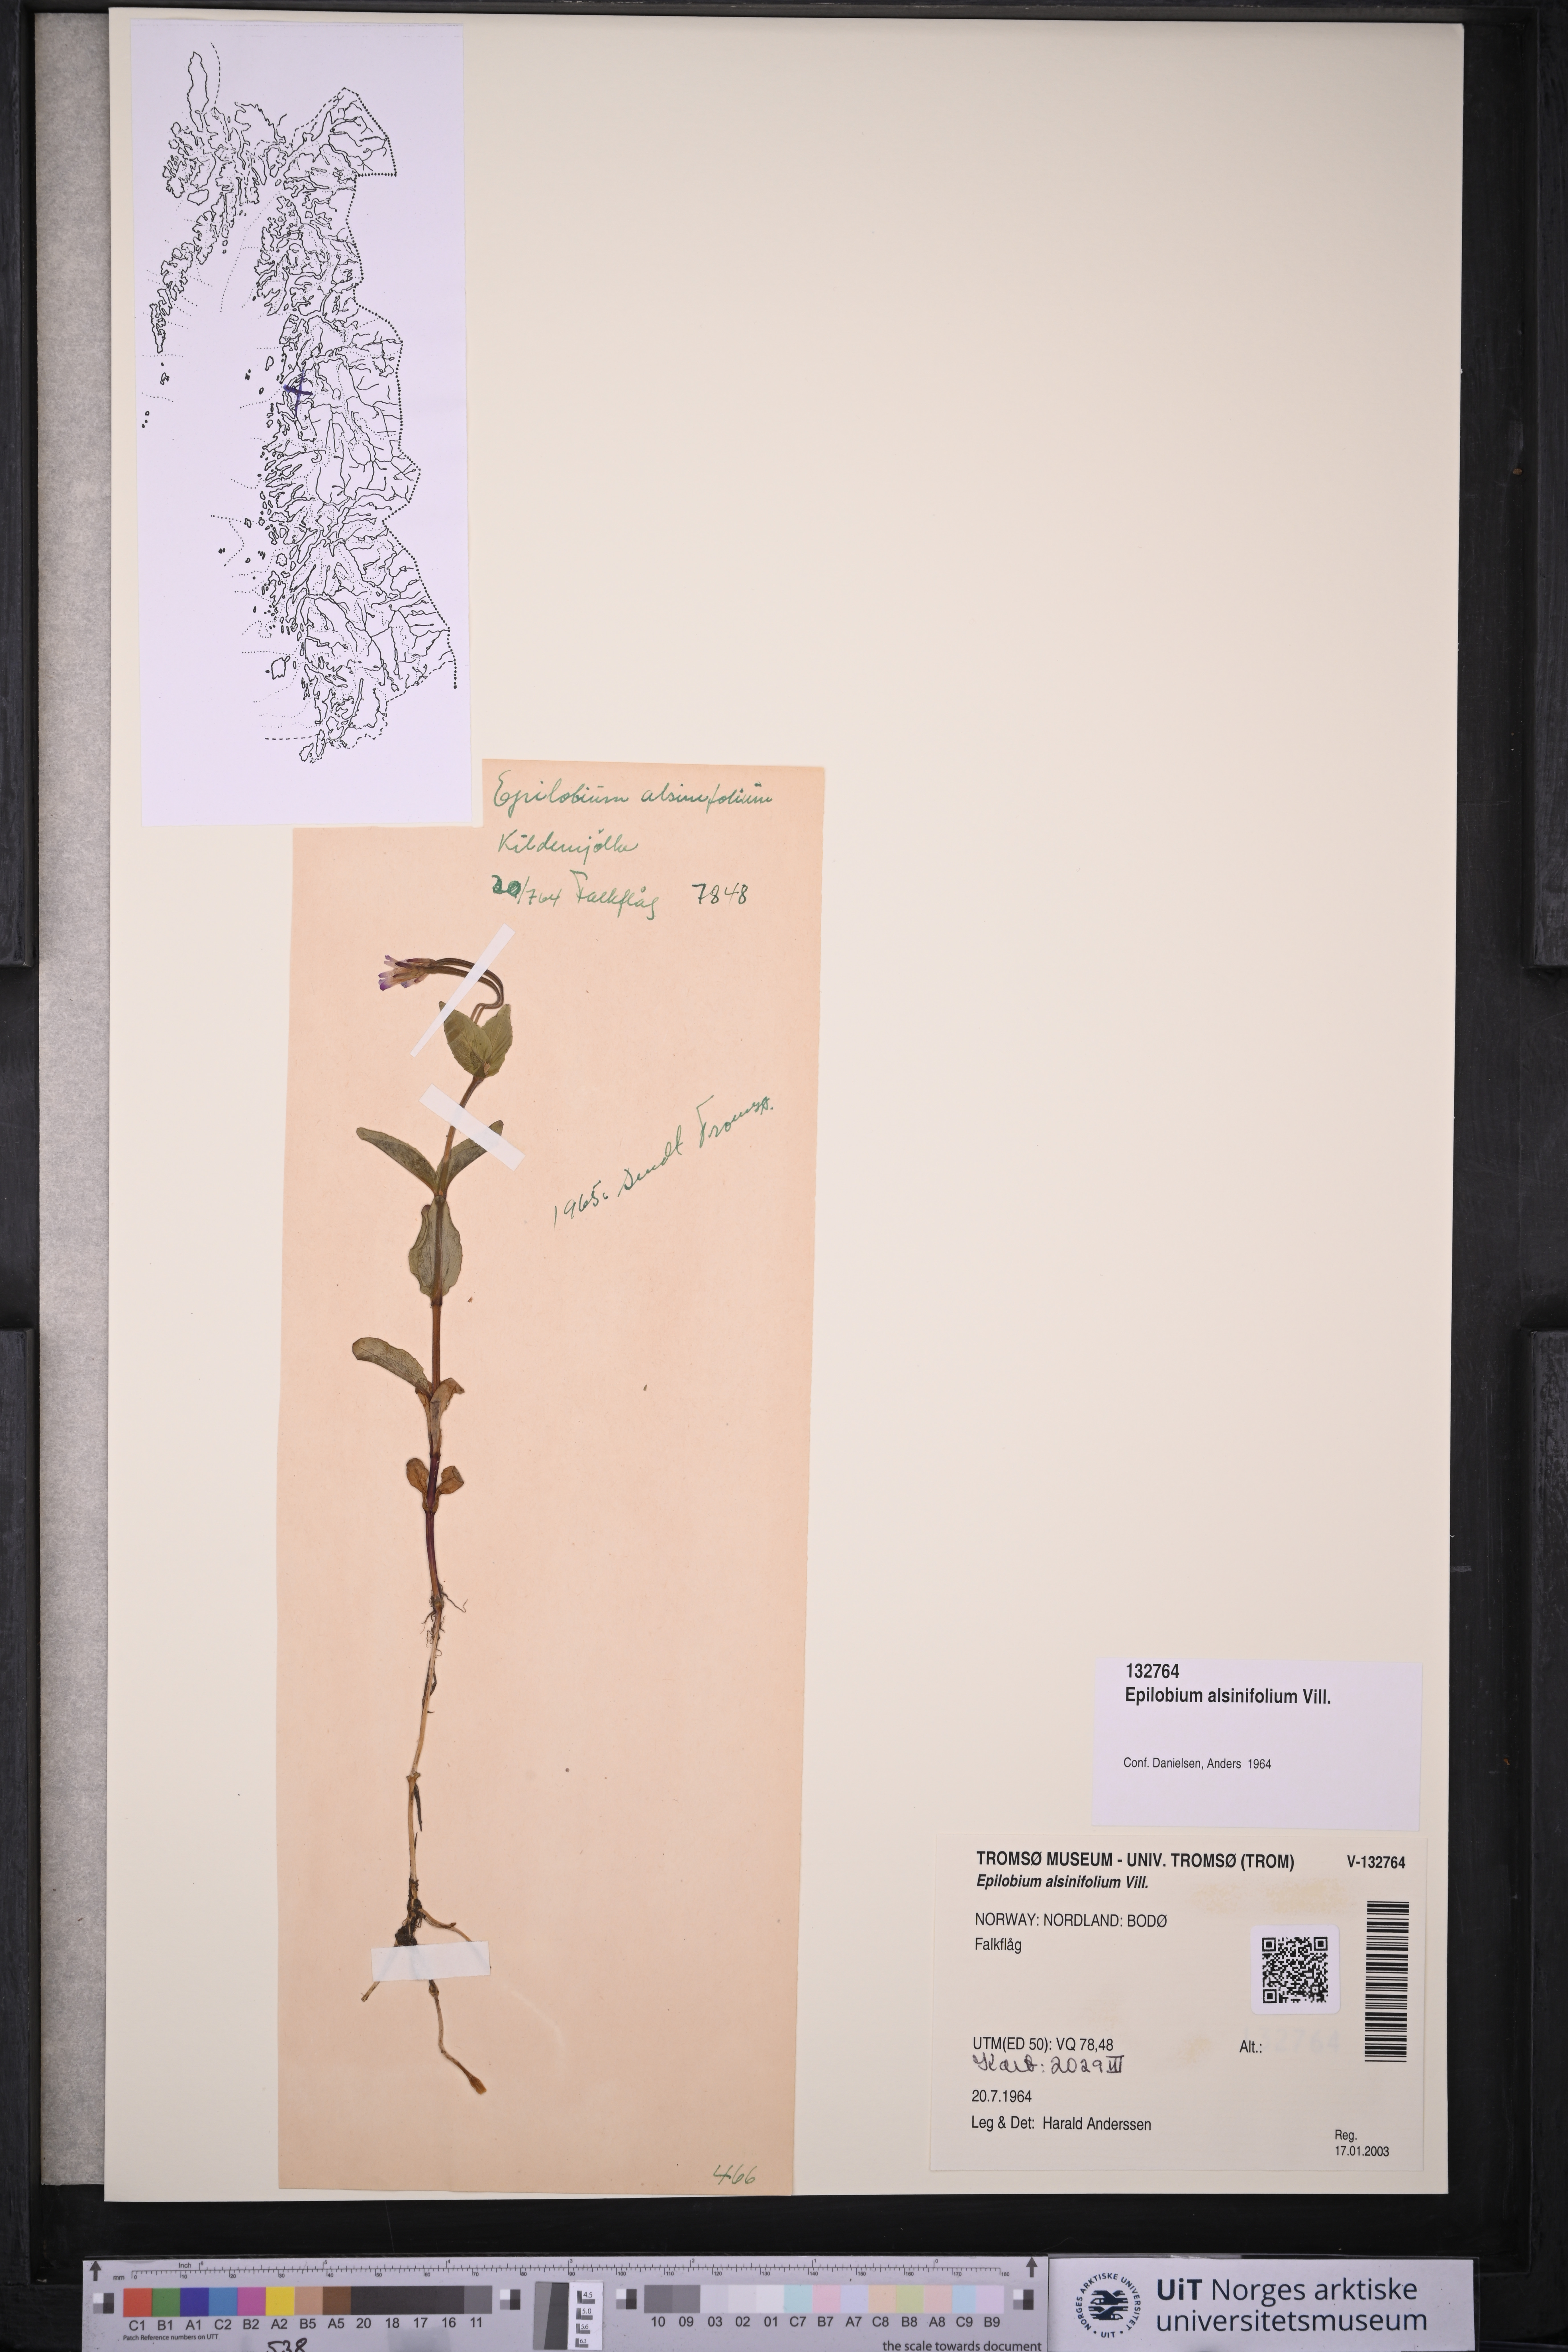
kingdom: Plantae
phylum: Tracheophyta
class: Magnoliopsida
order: Myrtales
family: Onagraceae
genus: Epilobium
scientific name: Epilobium alsinifolium
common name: Chickweed willowherb
